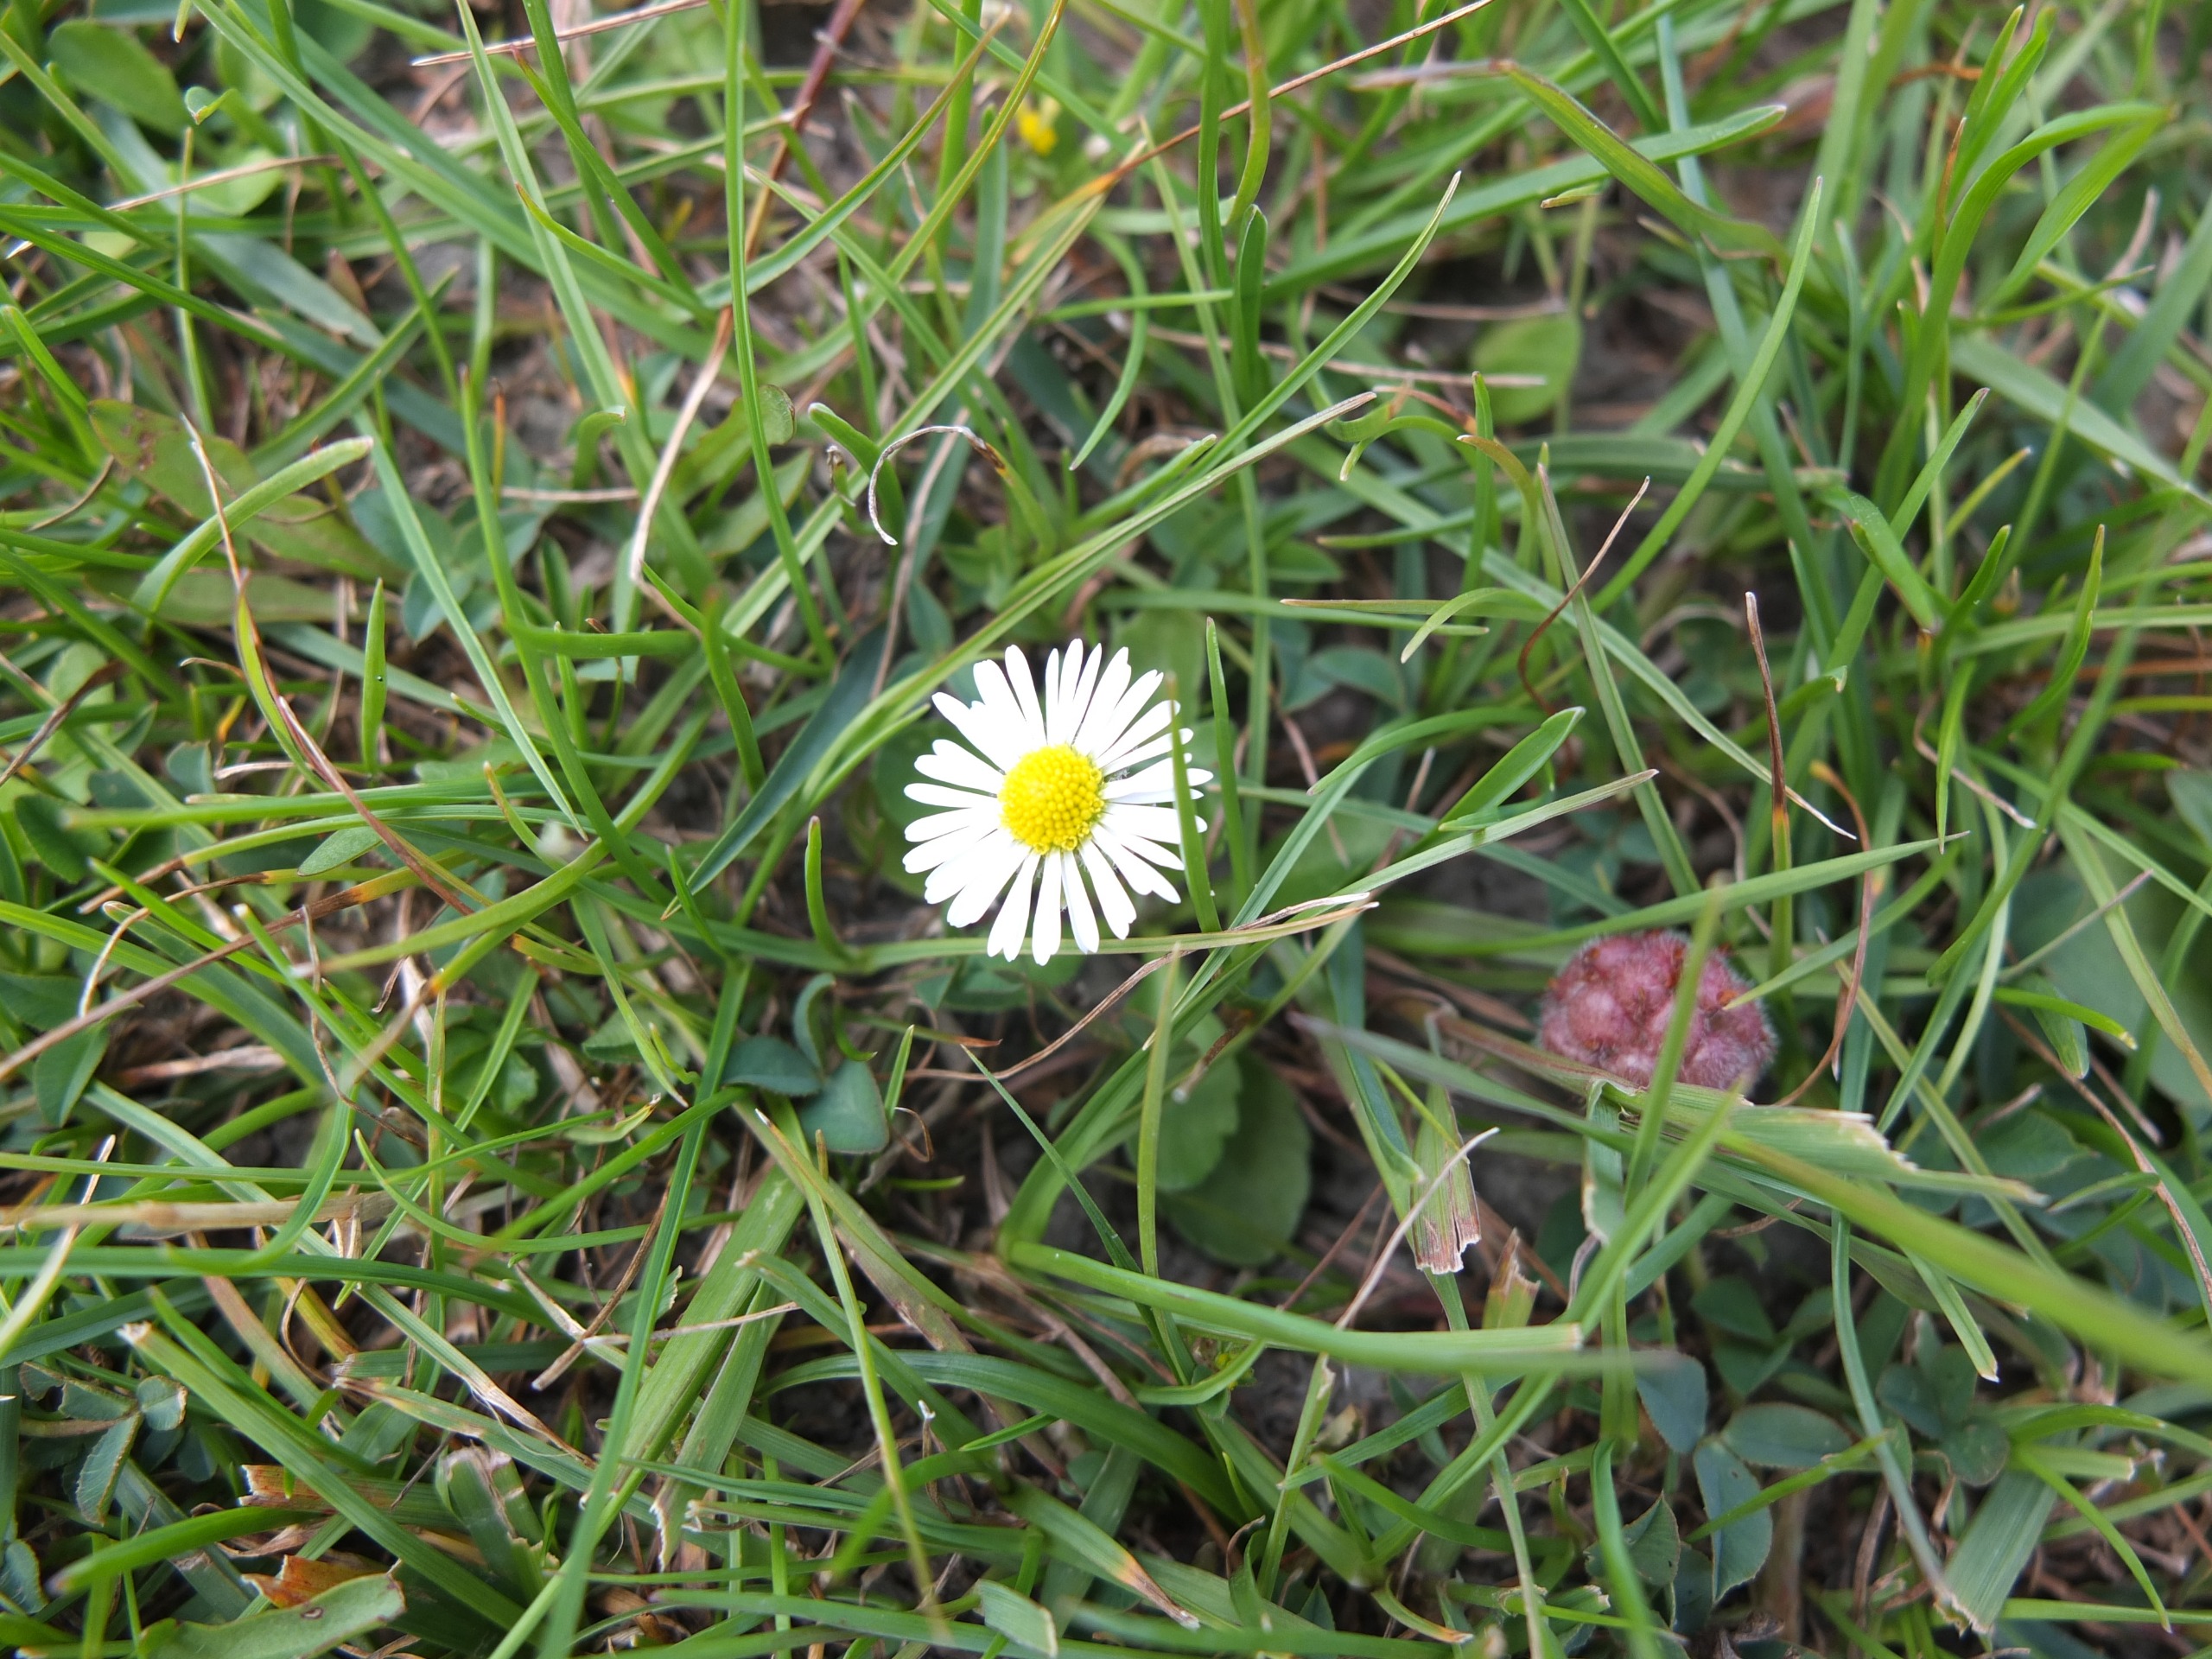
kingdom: Plantae
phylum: Tracheophyta
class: Magnoliopsida
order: Asterales
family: Asteraceae
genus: Bellis
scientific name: Bellis perennis
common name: Tusindfryd
